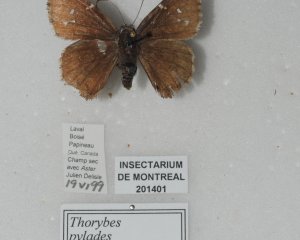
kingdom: Animalia
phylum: Arthropoda
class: Insecta
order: Lepidoptera
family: Hesperiidae
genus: Autochton
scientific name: Autochton
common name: Northern Cloudywing
